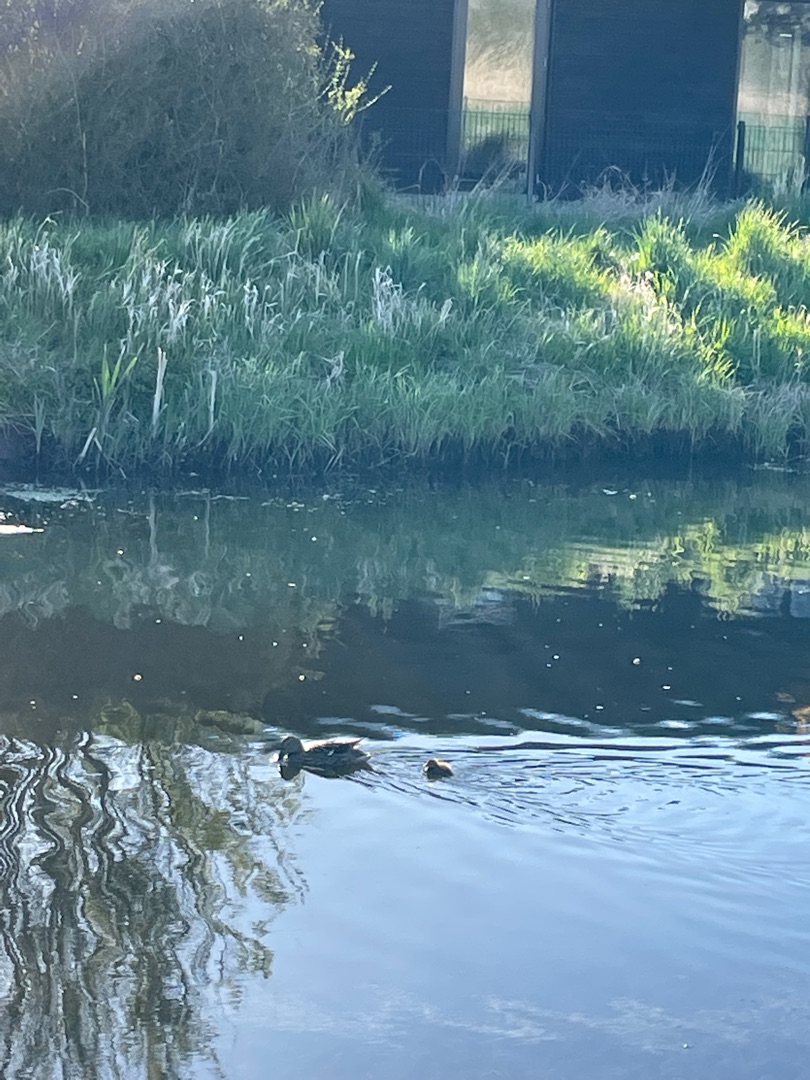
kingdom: Animalia
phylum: Chordata
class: Aves
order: Anseriformes
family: Anatidae
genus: Anas
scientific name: Anas platyrhynchos
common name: Gråand
